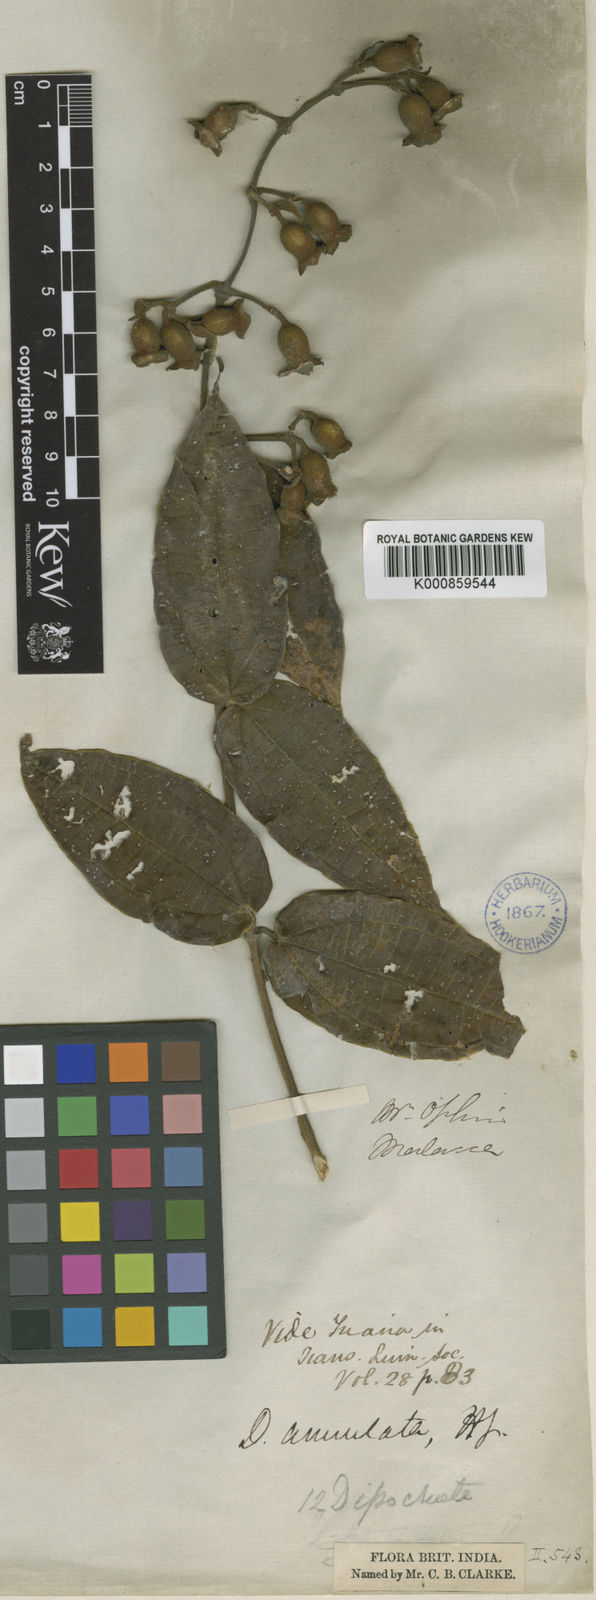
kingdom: Plantae
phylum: Tracheophyta
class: Magnoliopsida
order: Myrtales
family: Melastomataceae
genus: Dissochaeta
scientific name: Dissochaeta annulata
